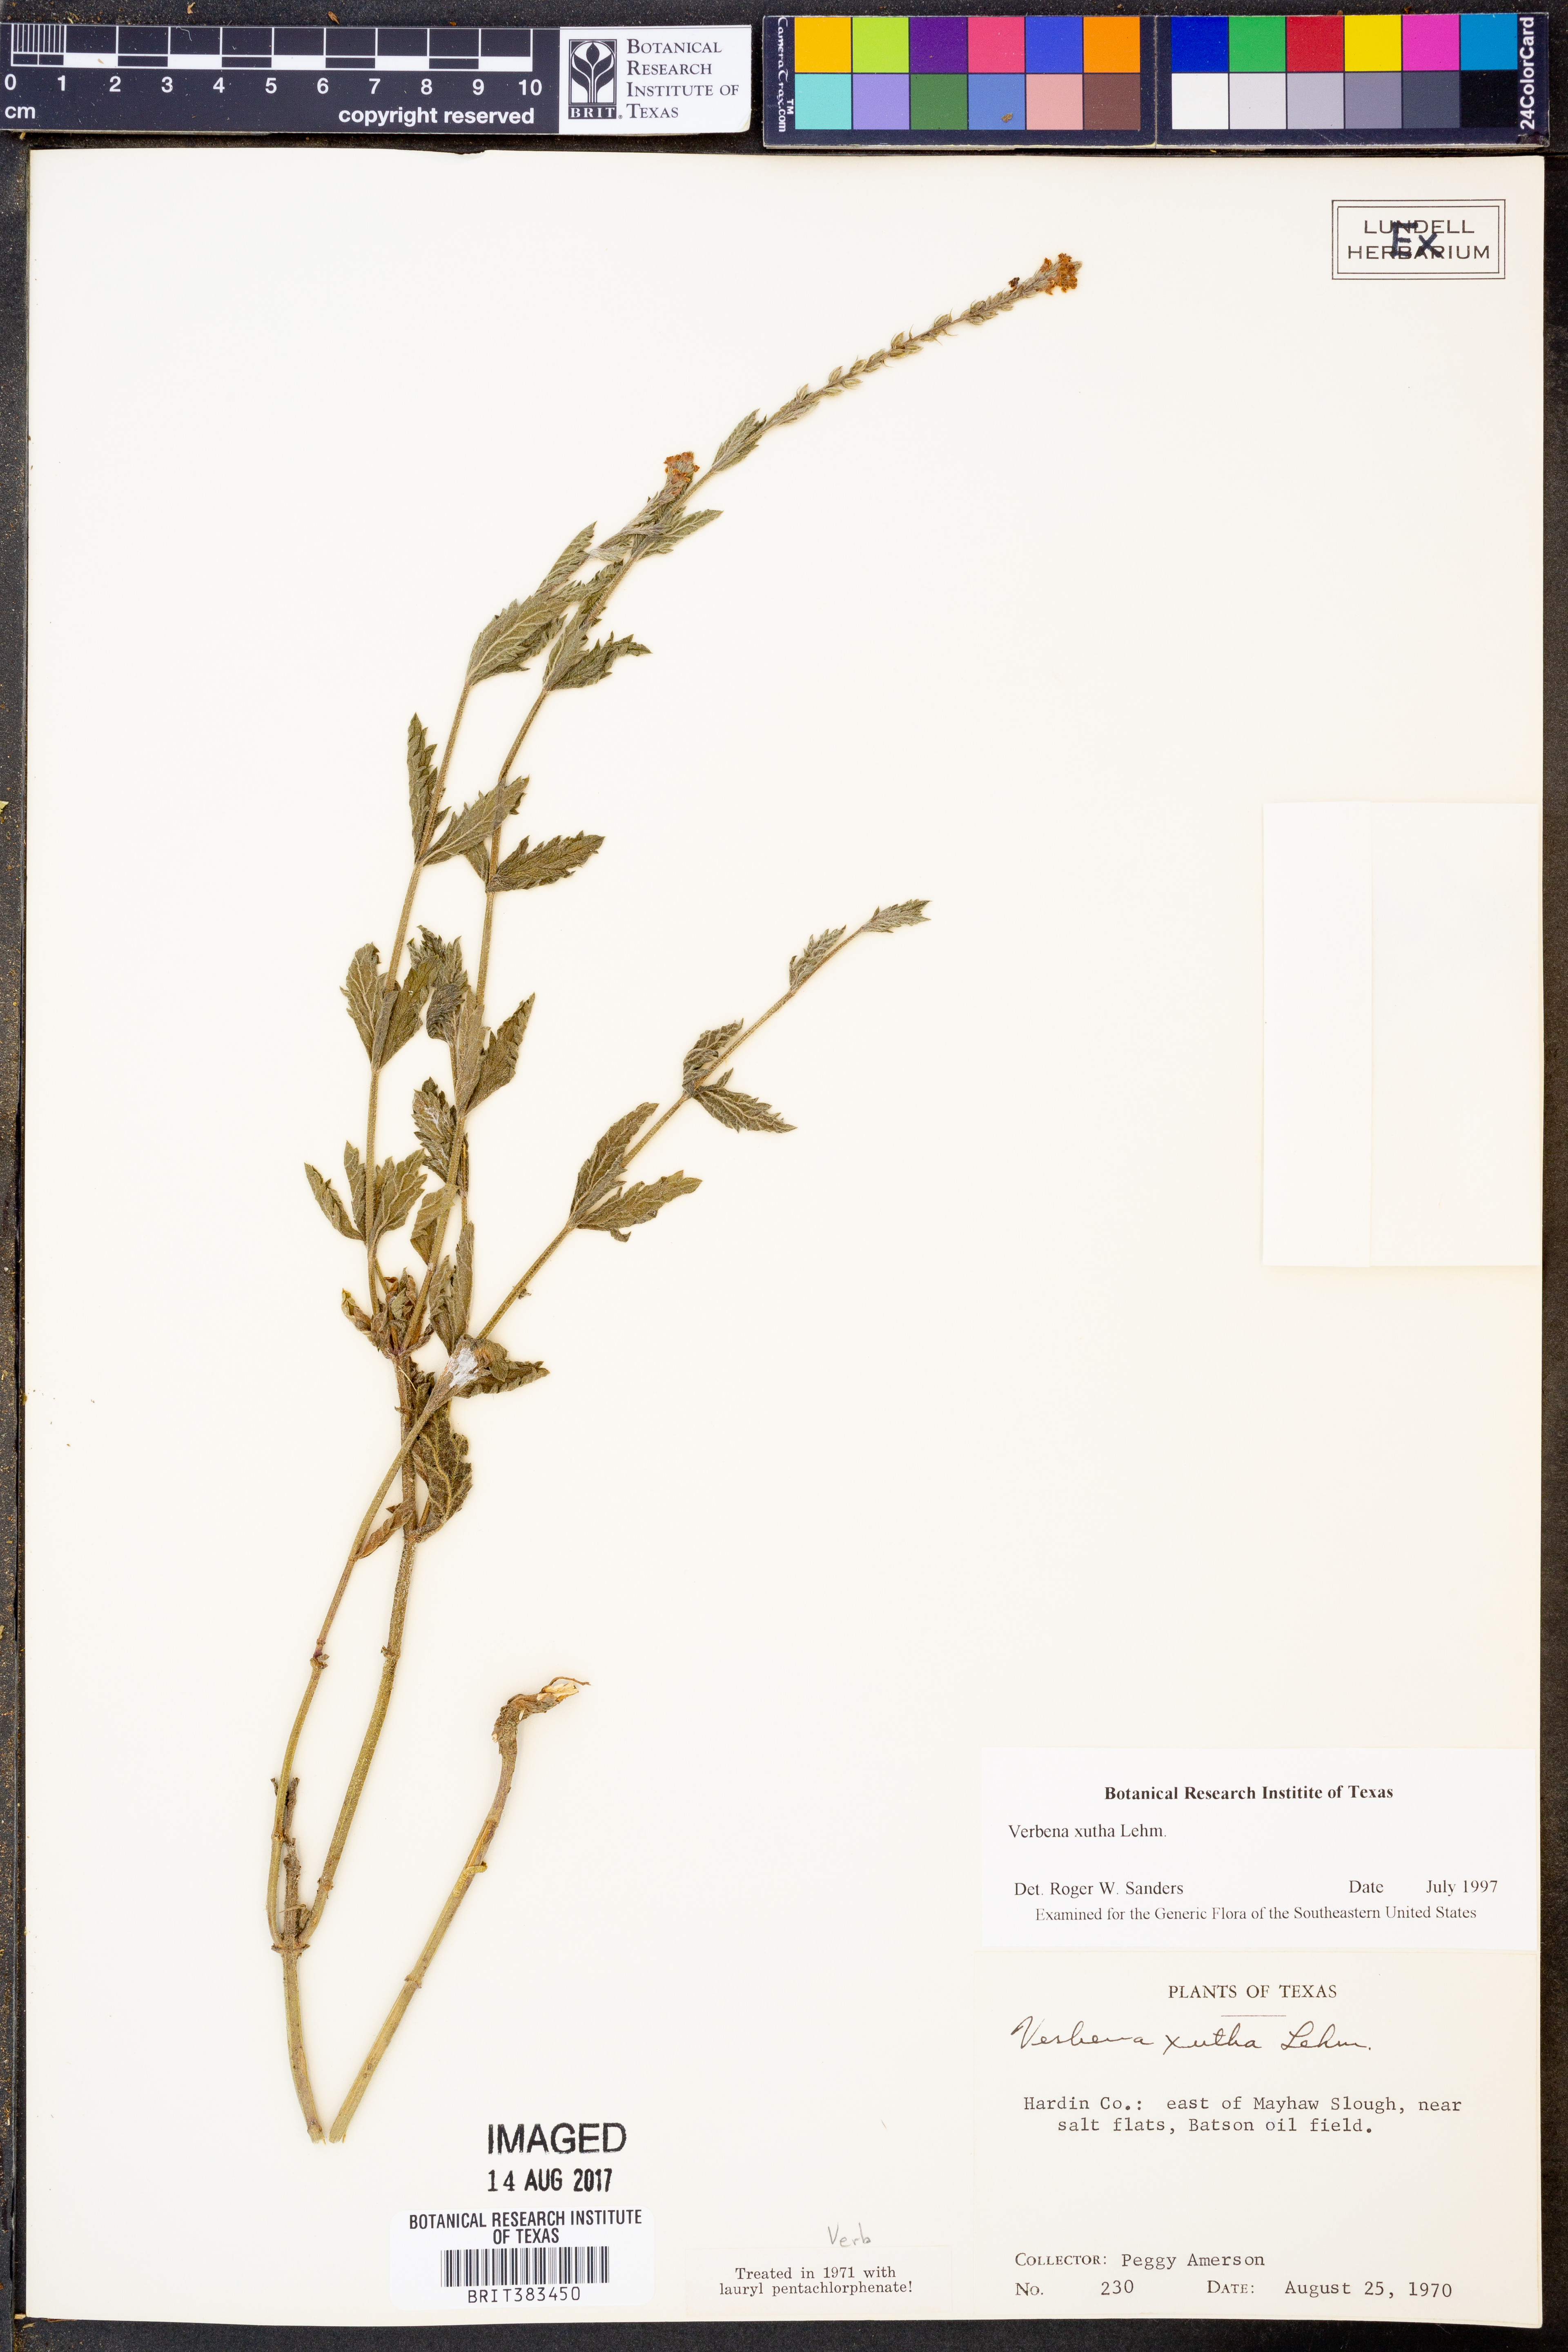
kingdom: Plantae
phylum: Tracheophyta
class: Magnoliopsida
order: Lamiales
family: Verbenaceae
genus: Verbena
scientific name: Verbena xutha
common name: Gulf vervain
